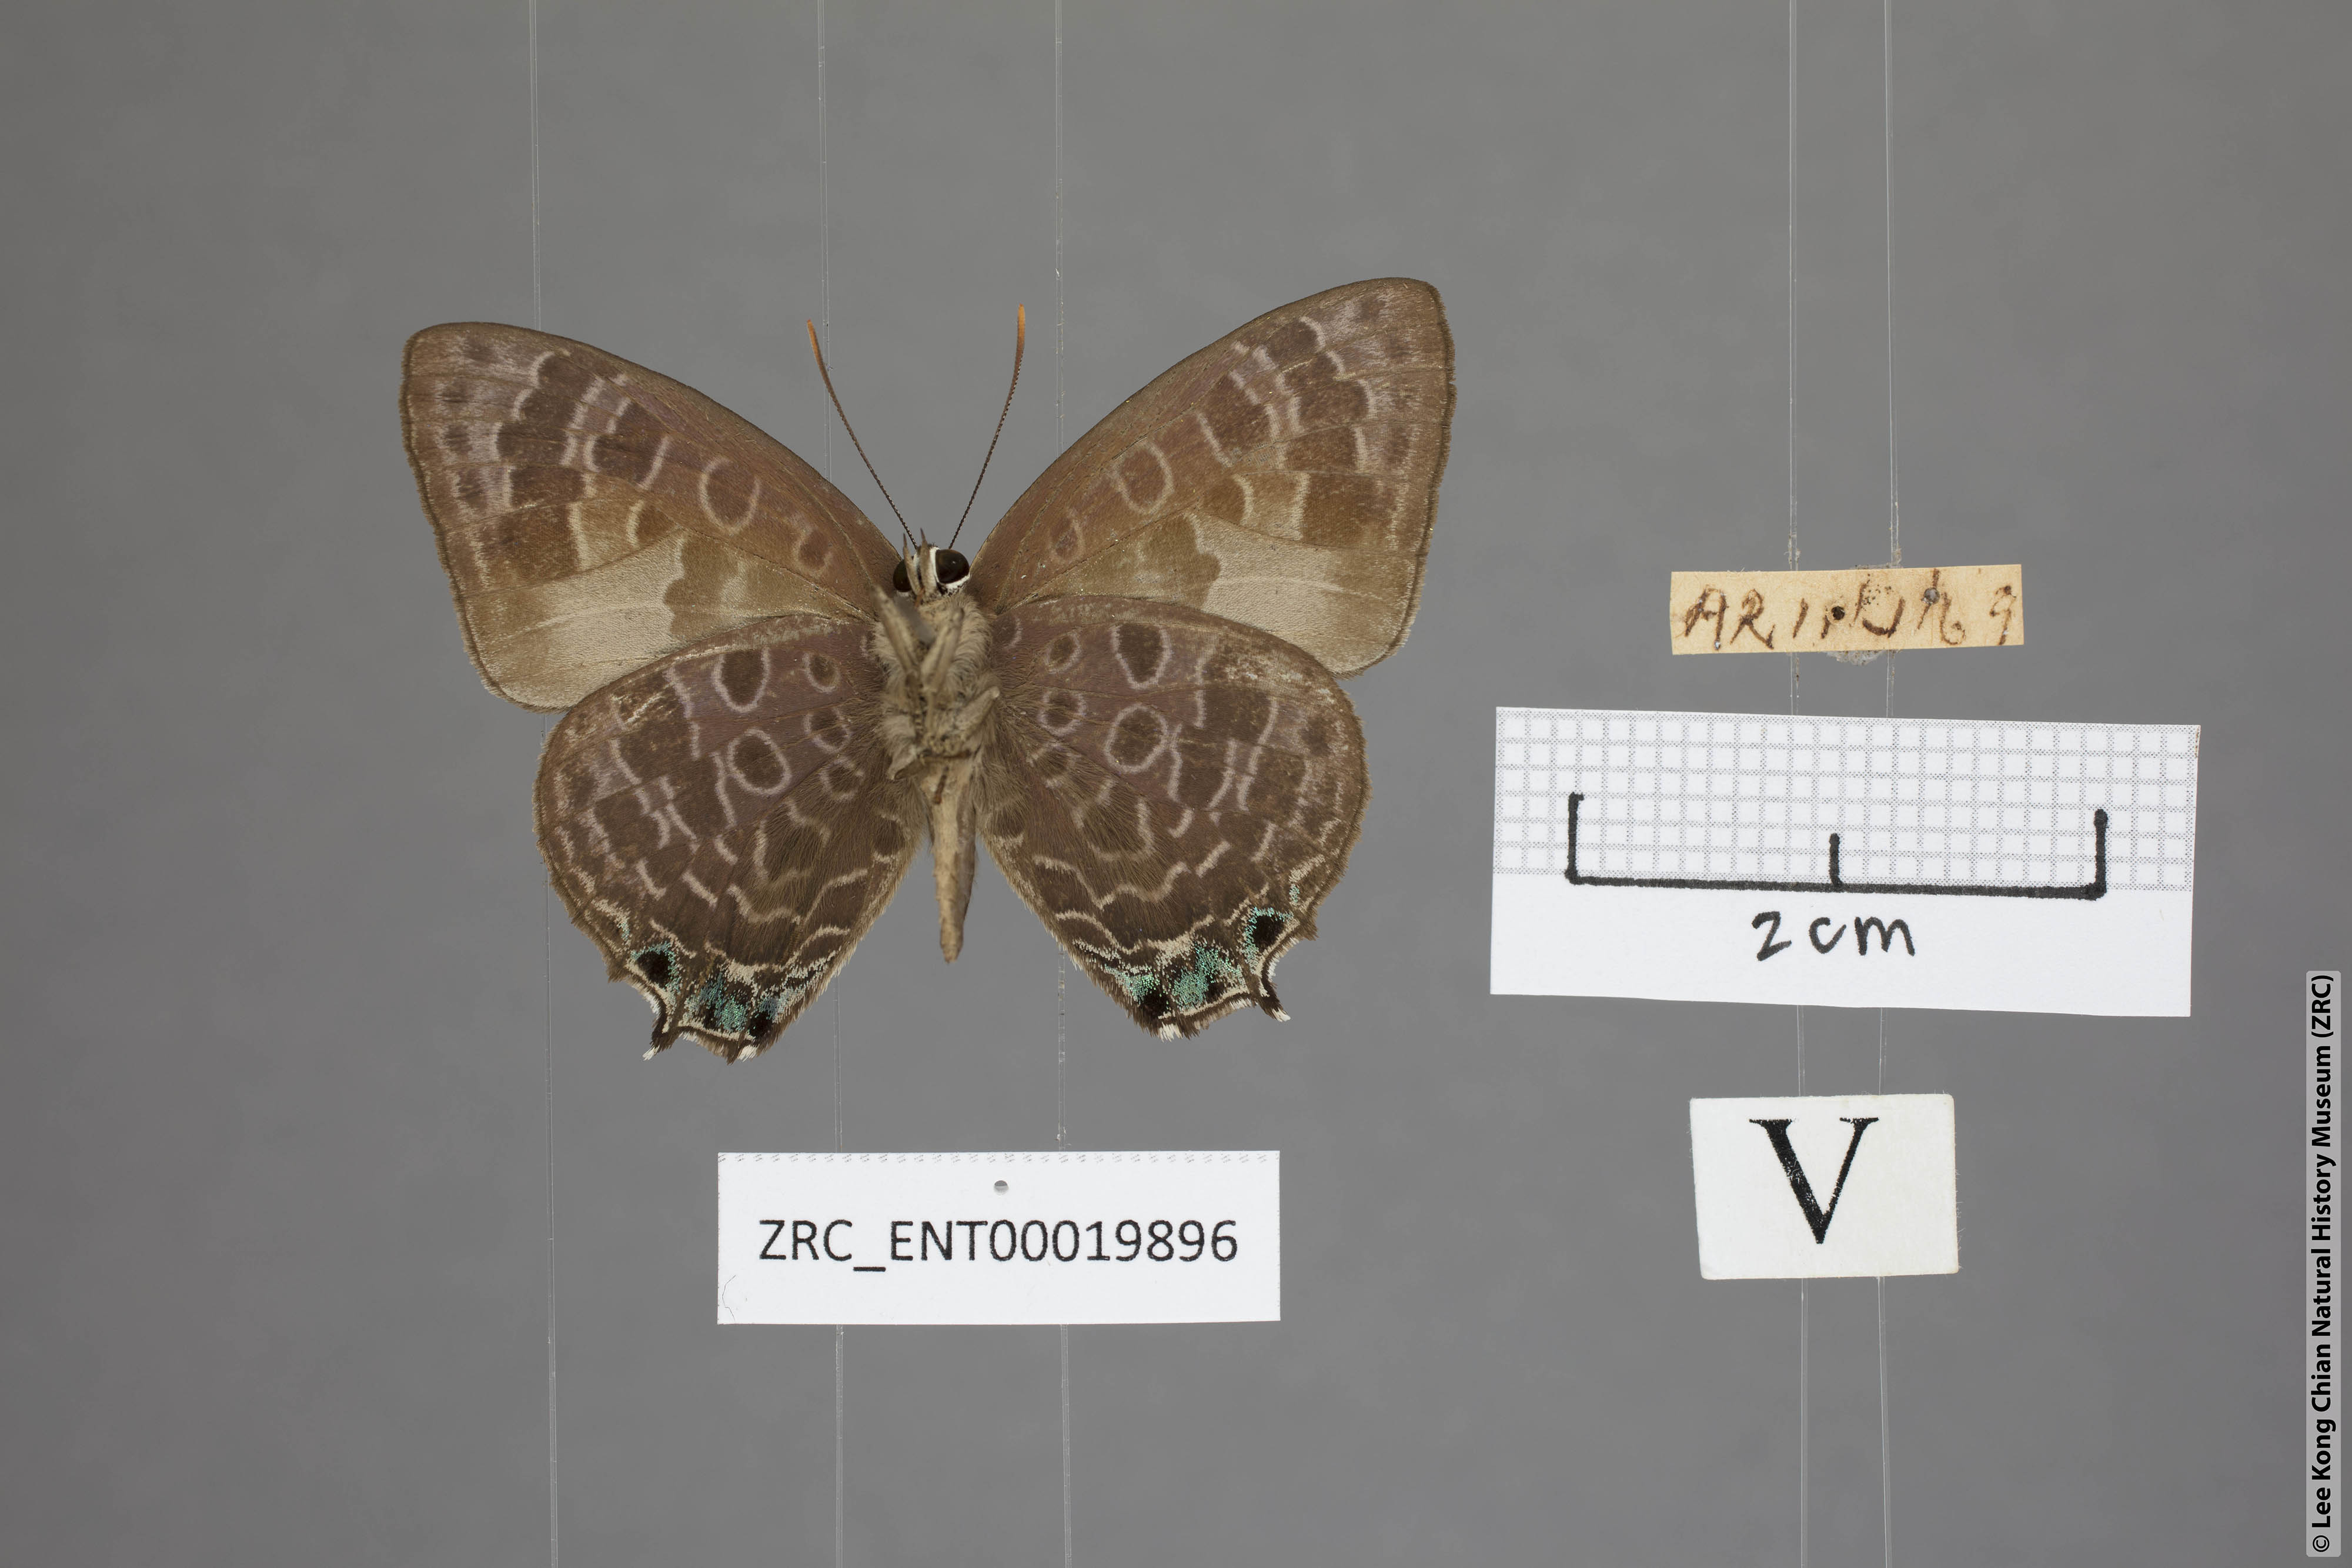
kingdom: Animalia
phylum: Arthropoda
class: Insecta
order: Lepidoptera
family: Lycaenidae
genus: Arhopala
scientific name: Arhopala trogon
